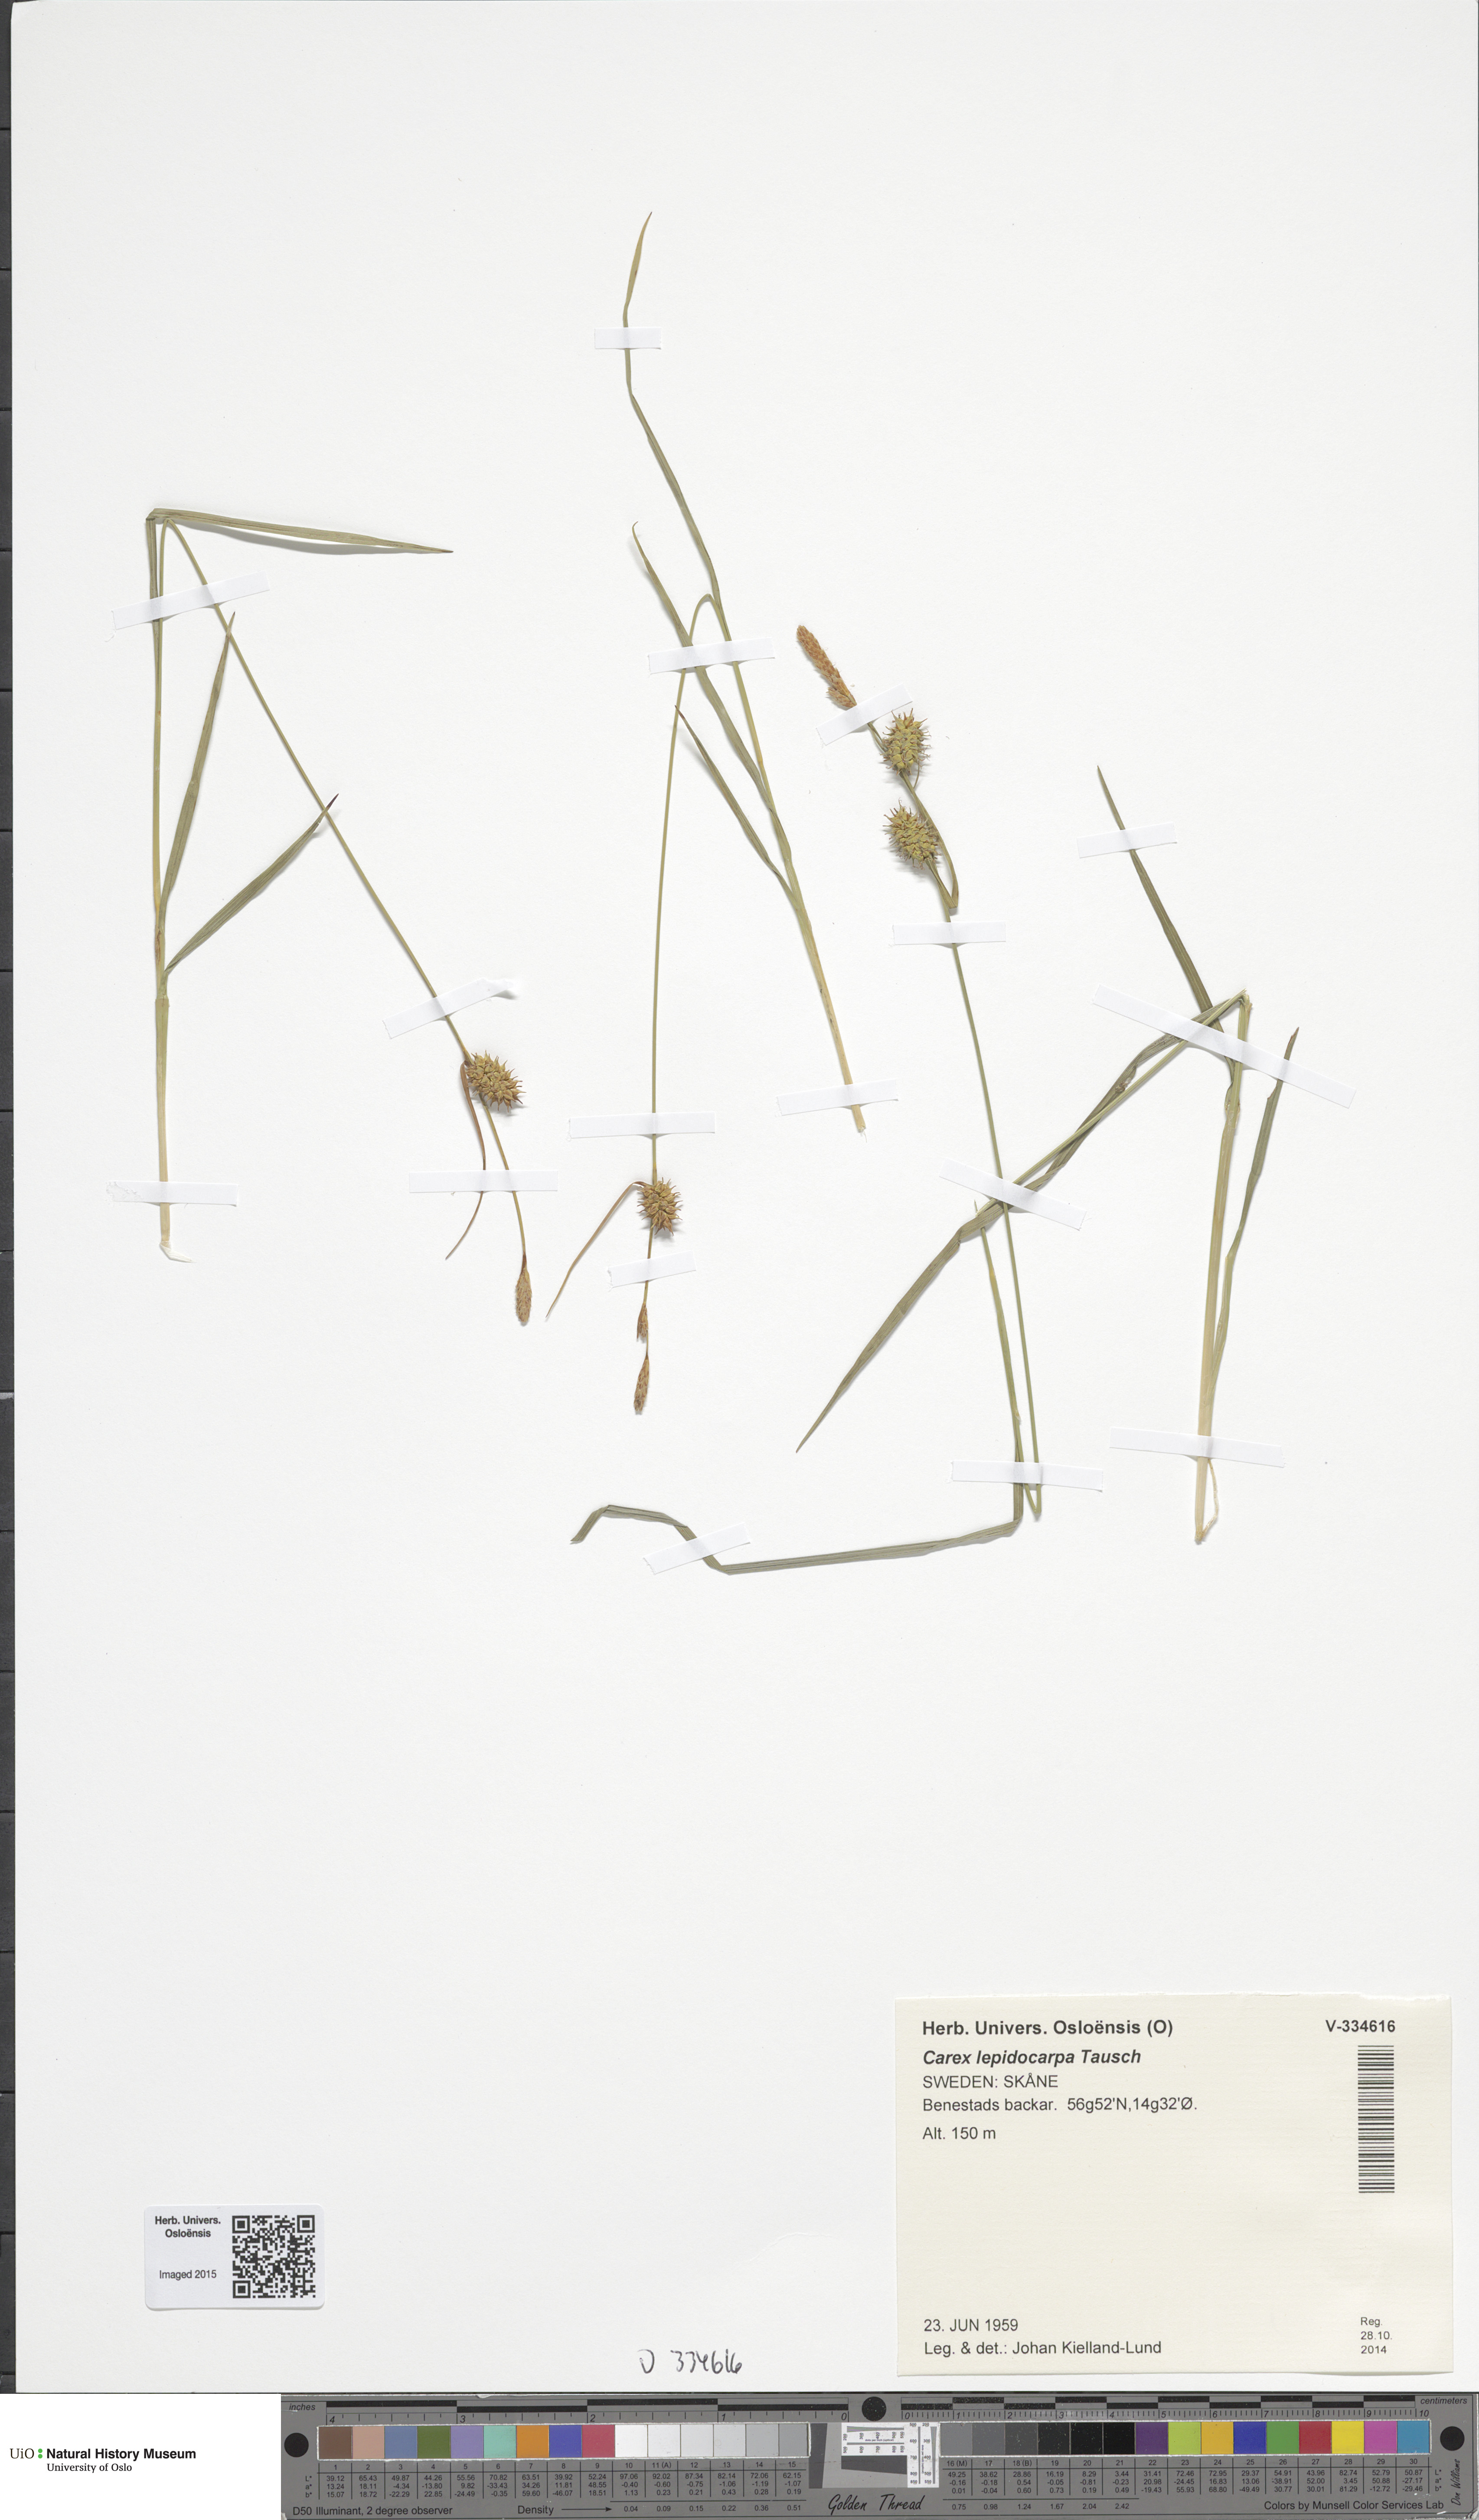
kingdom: Plantae
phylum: Tracheophyta
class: Liliopsida
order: Poales
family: Cyperaceae
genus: Carex
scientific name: Carex lepidocarpa
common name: Long-stalked yellow-sedge
